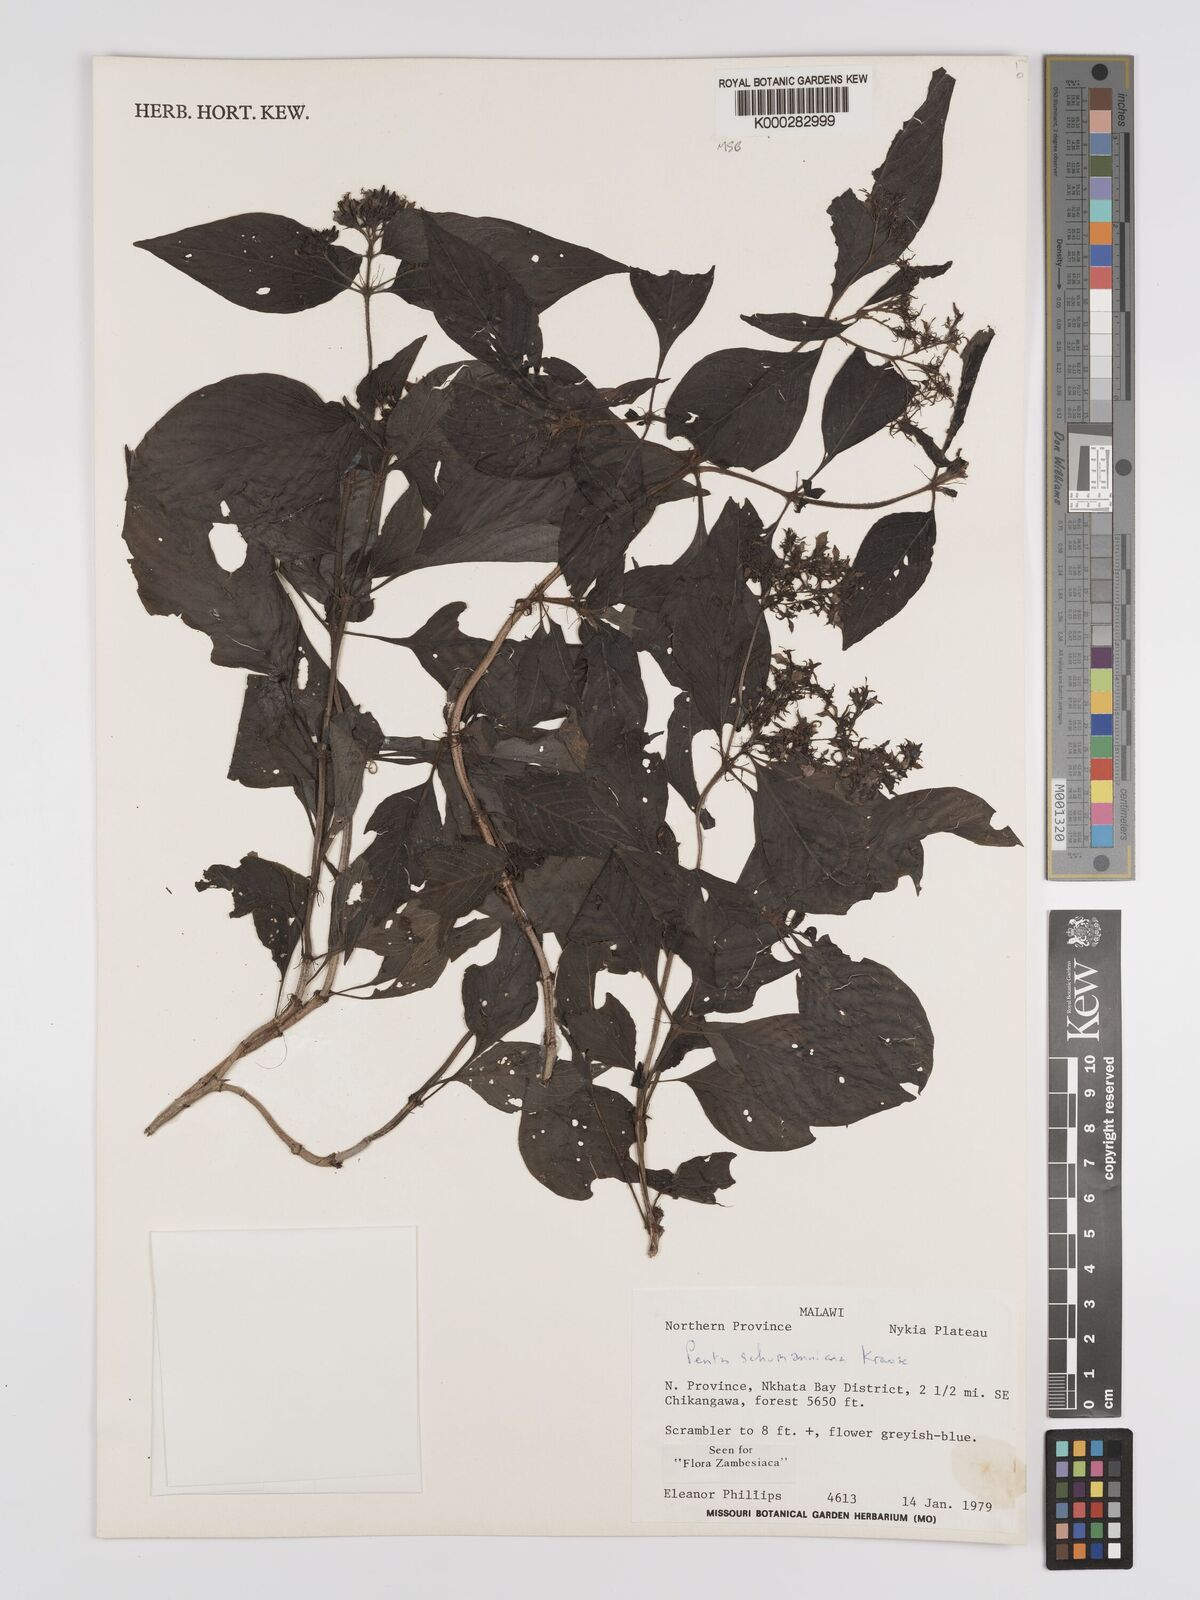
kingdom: Plantae
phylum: Tracheophyta
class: Magnoliopsida
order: Gentianales
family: Rubiaceae
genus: Phyllopentas
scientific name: Phyllopentas schumanniana
